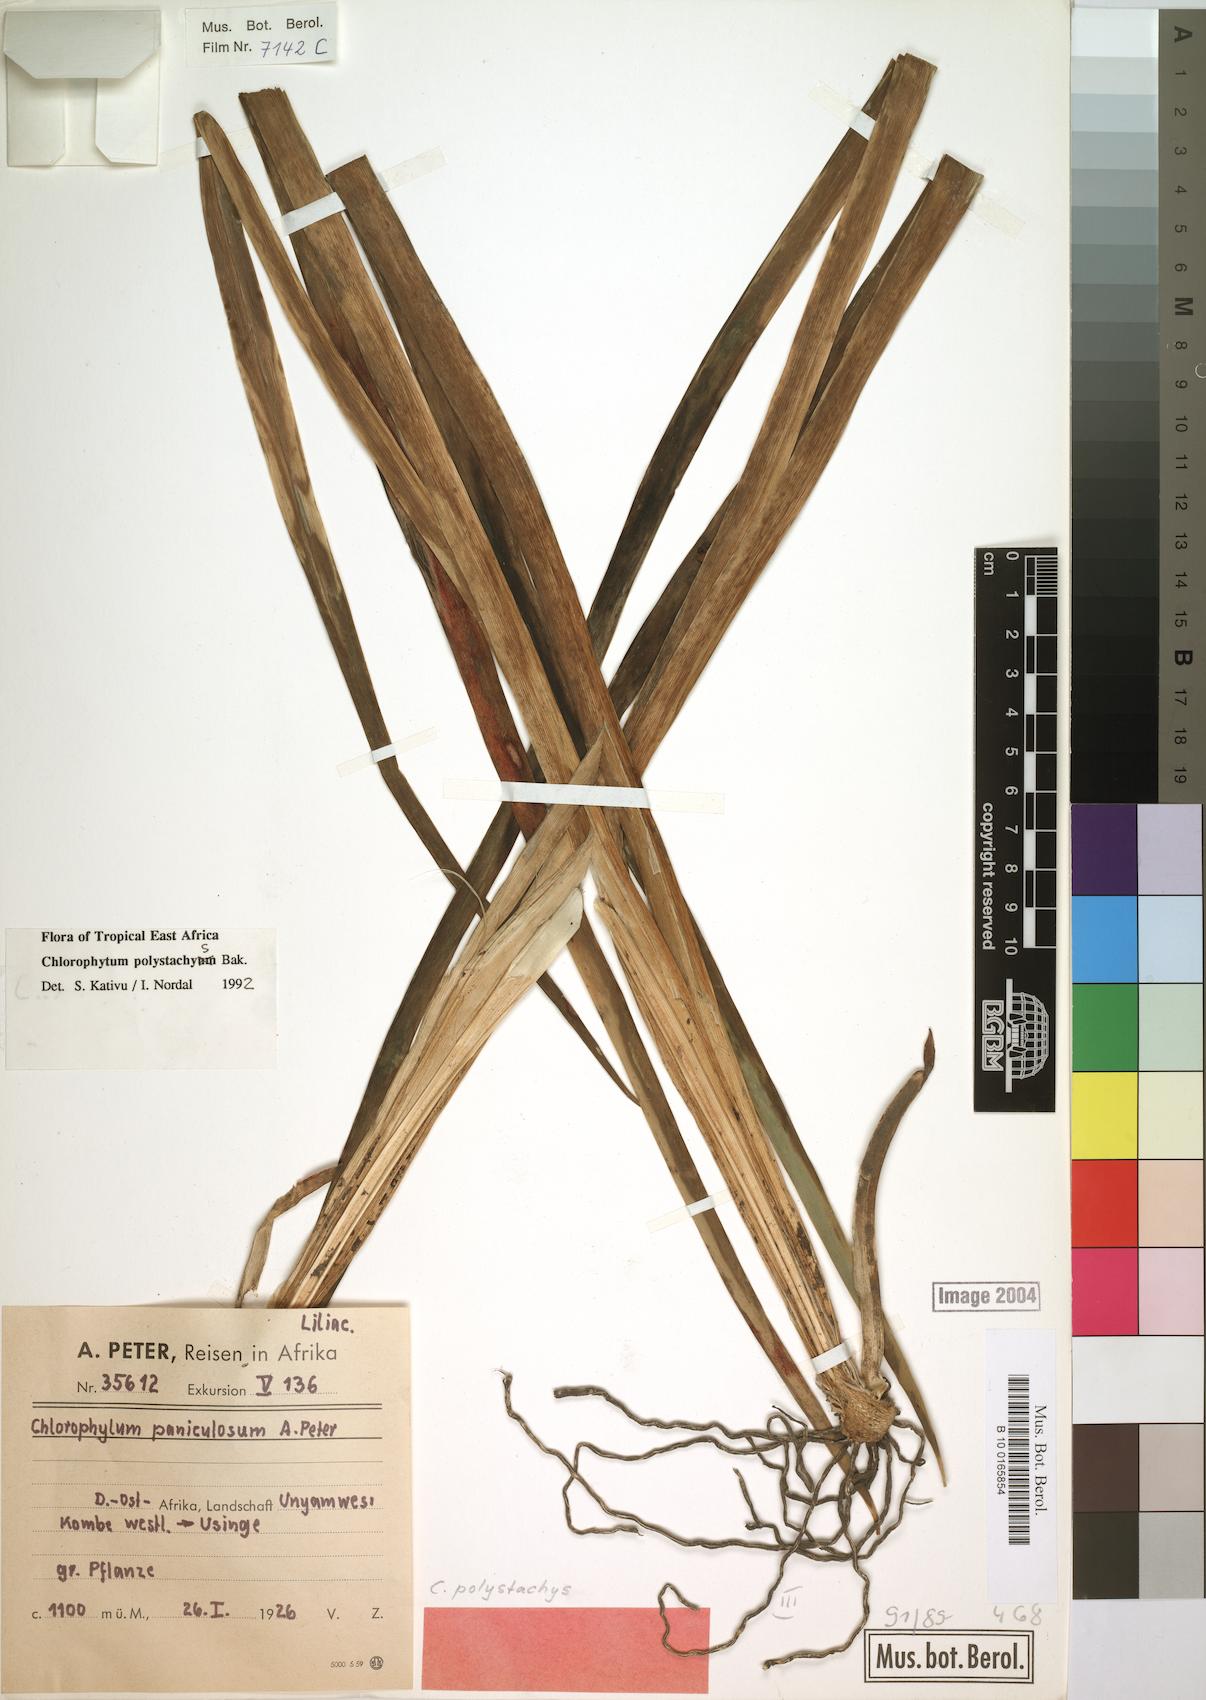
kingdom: Plantae
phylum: Tracheophyta
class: Liliopsida
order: Asparagales
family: Asparagaceae
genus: Chlorophytum
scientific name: Chlorophytum polystachys
